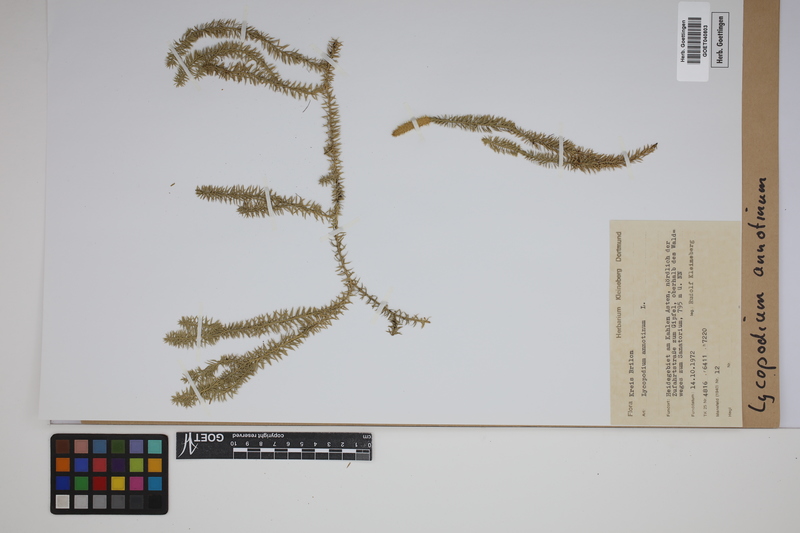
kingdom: Plantae
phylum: Tracheophyta
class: Lycopodiopsida
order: Lycopodiales
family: Lycopodiaceae
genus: Spinulum
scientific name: Spinulum annotinum
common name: Interrupted club-moss
